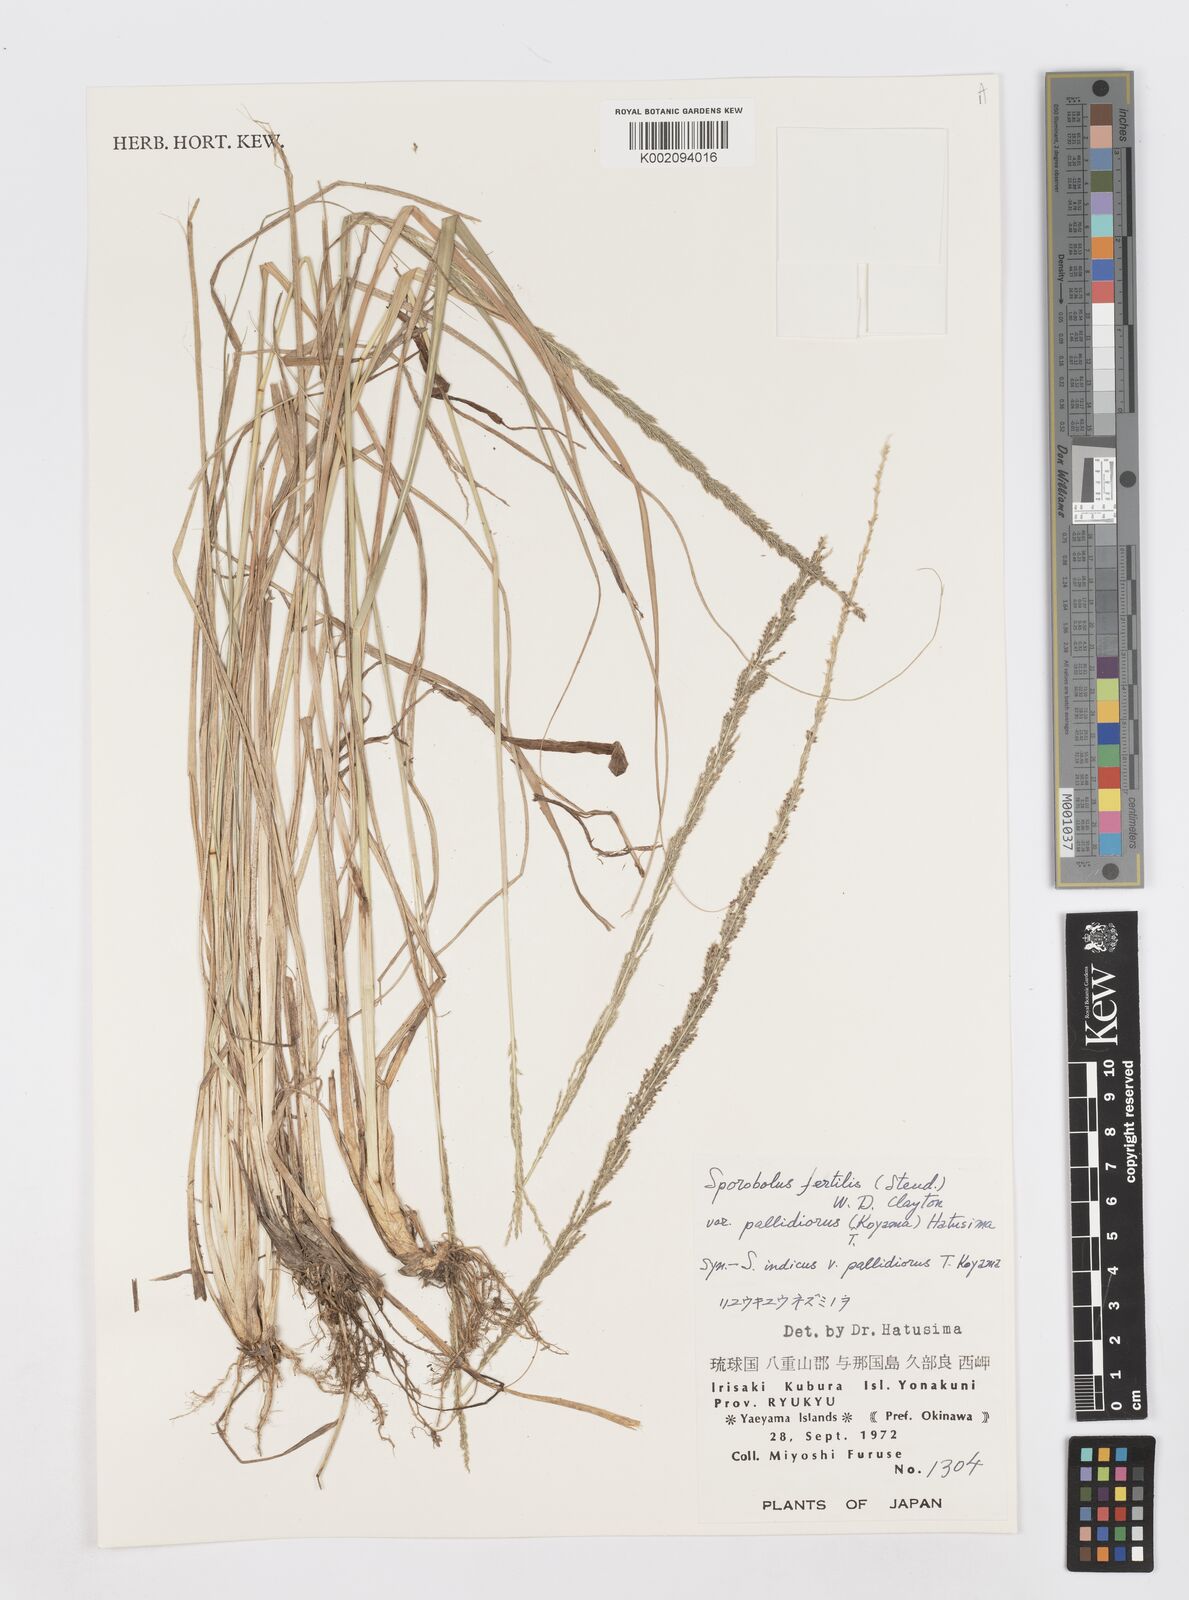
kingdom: Plantae
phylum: Tracheophyta
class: Liliopsida
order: Poales
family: Poaceae
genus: Sporobolus
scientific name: Sporobolus fertilis
